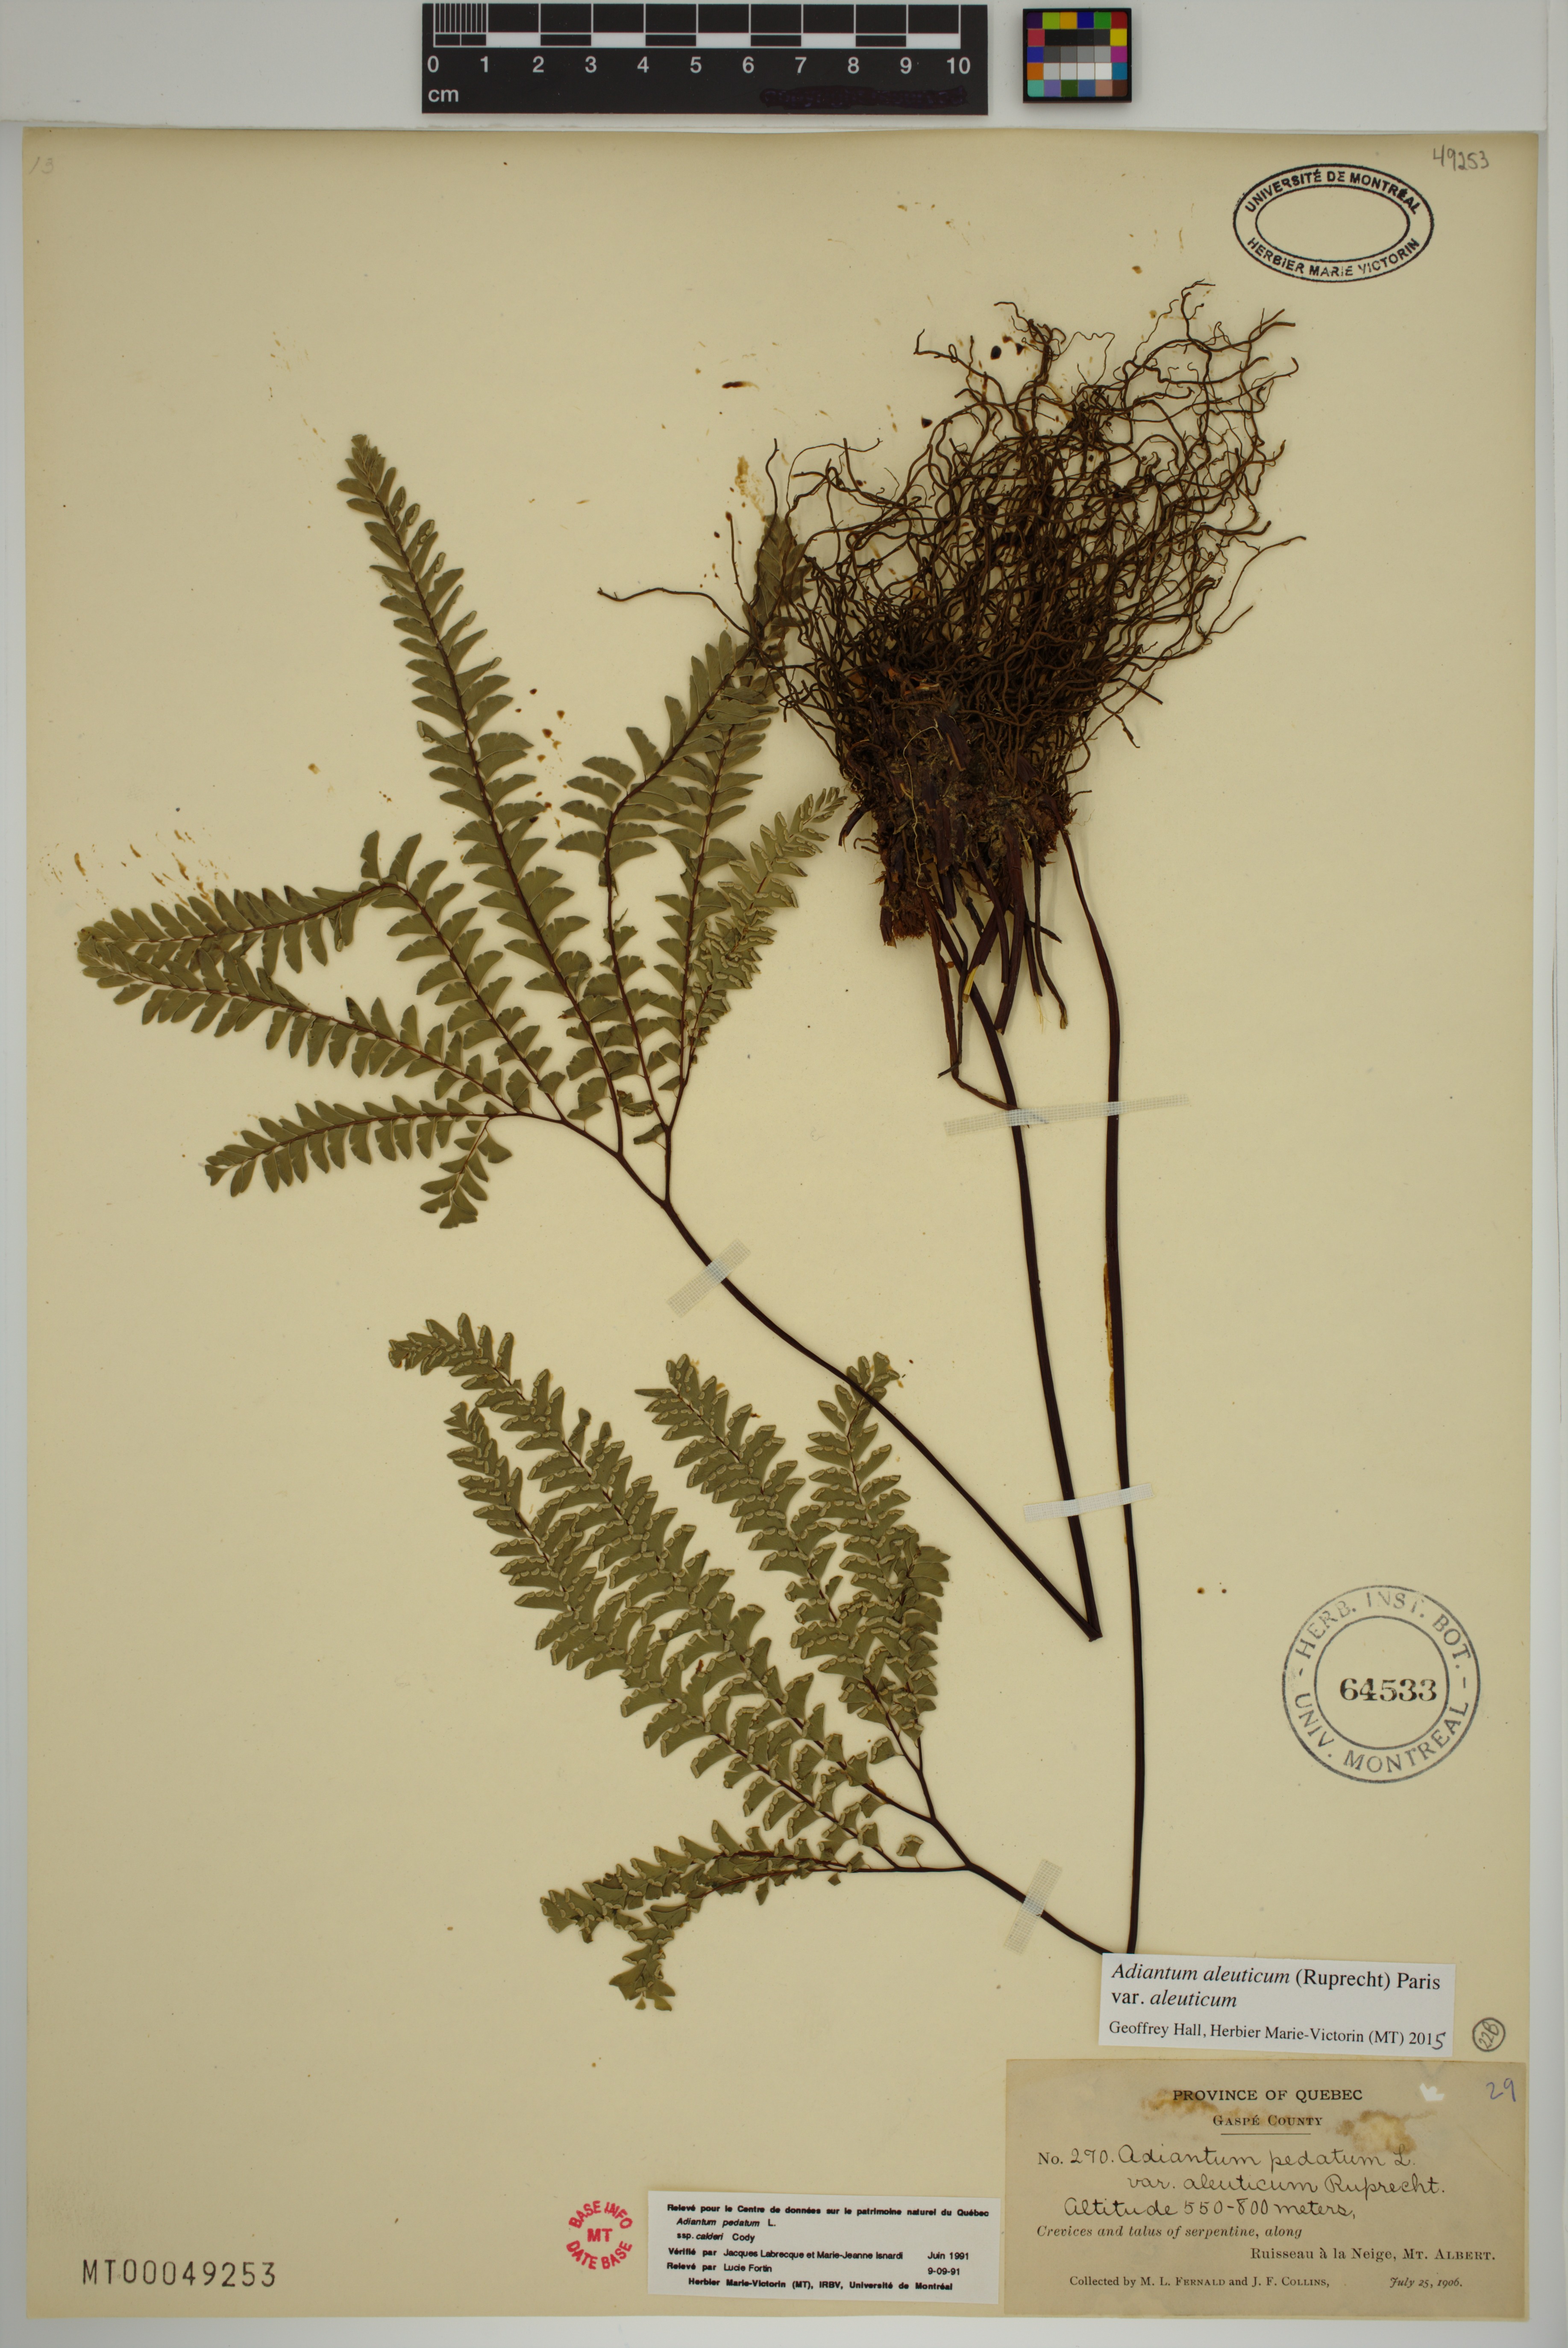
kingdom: Plantae
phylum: Tracheophyta
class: Polypodiopsida
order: Polypodiales
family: Pteridaceae
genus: Adiantum
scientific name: Adiantum aleuticum
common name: Aleutian maidenhair fern
